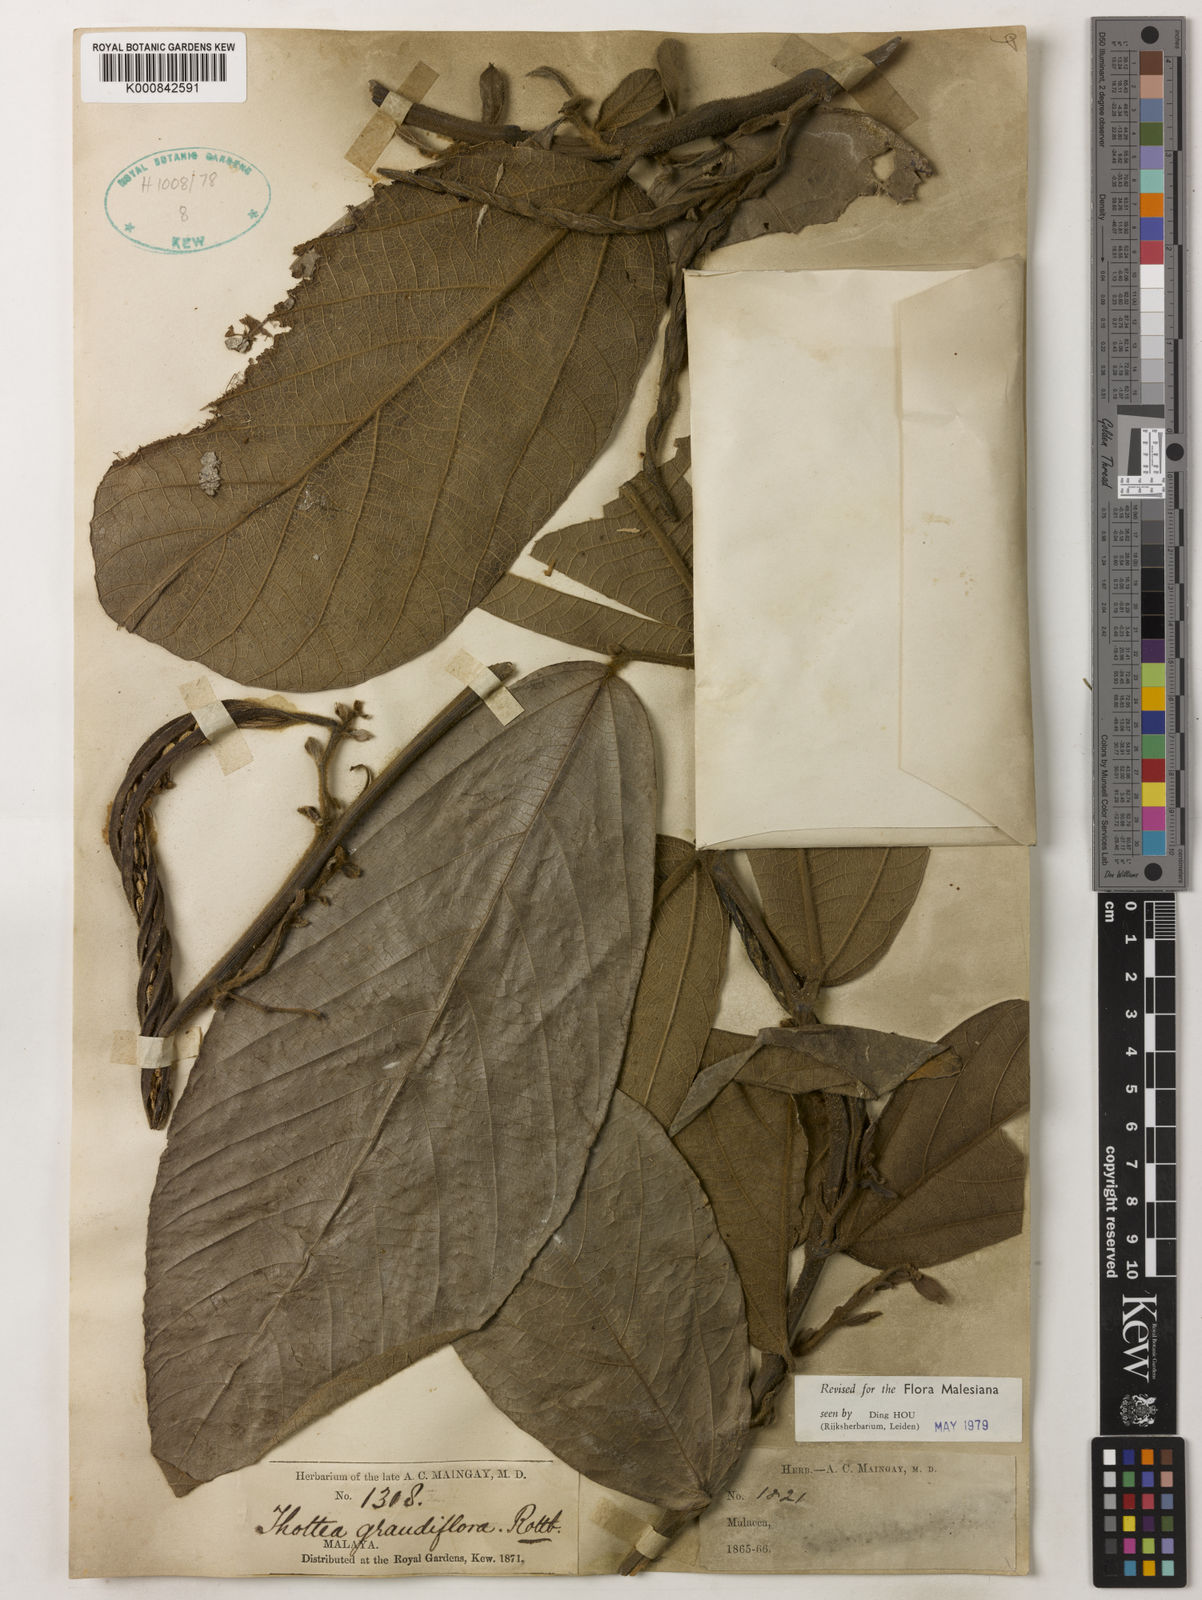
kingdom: Plantae
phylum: Tracheophyta
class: Magnoliopsida
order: Piperales
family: Aristolochiaceae
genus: Thottea
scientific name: Thottea grandiflora
